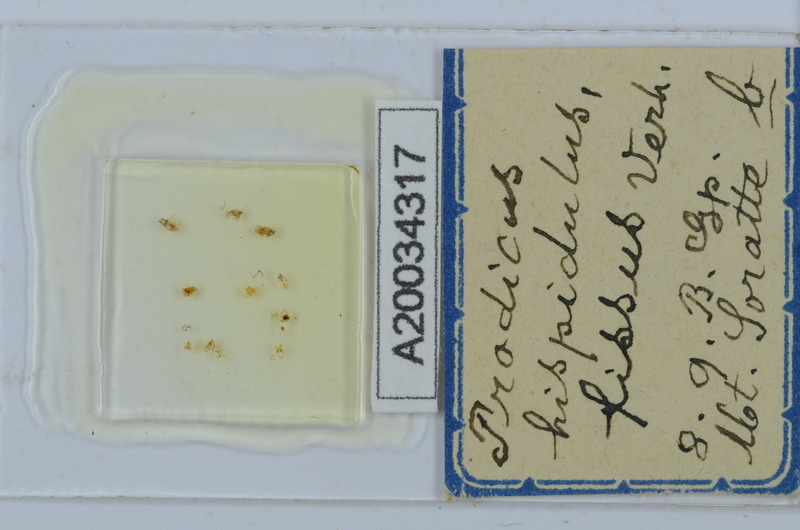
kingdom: Animalia
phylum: Arthropoda
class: Diplopoda
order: Chordeumatida
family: Anthroleucosomatidae
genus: Anamastigona
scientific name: Anamastigona hispidula
